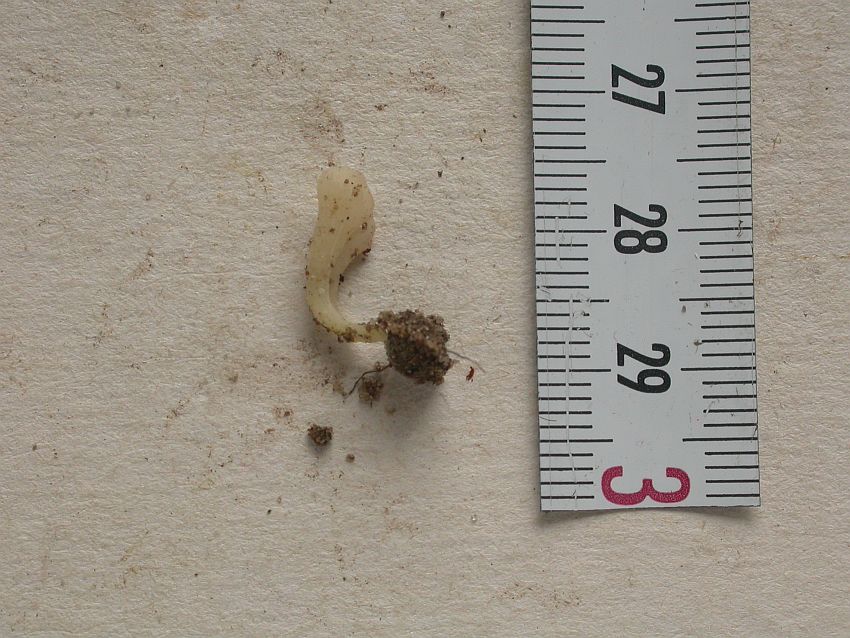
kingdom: Fungi
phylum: Basidiomycota
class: Agaricomycetes
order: Agaricales
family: Clavariaceae
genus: Clavaria
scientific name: Clavaria
